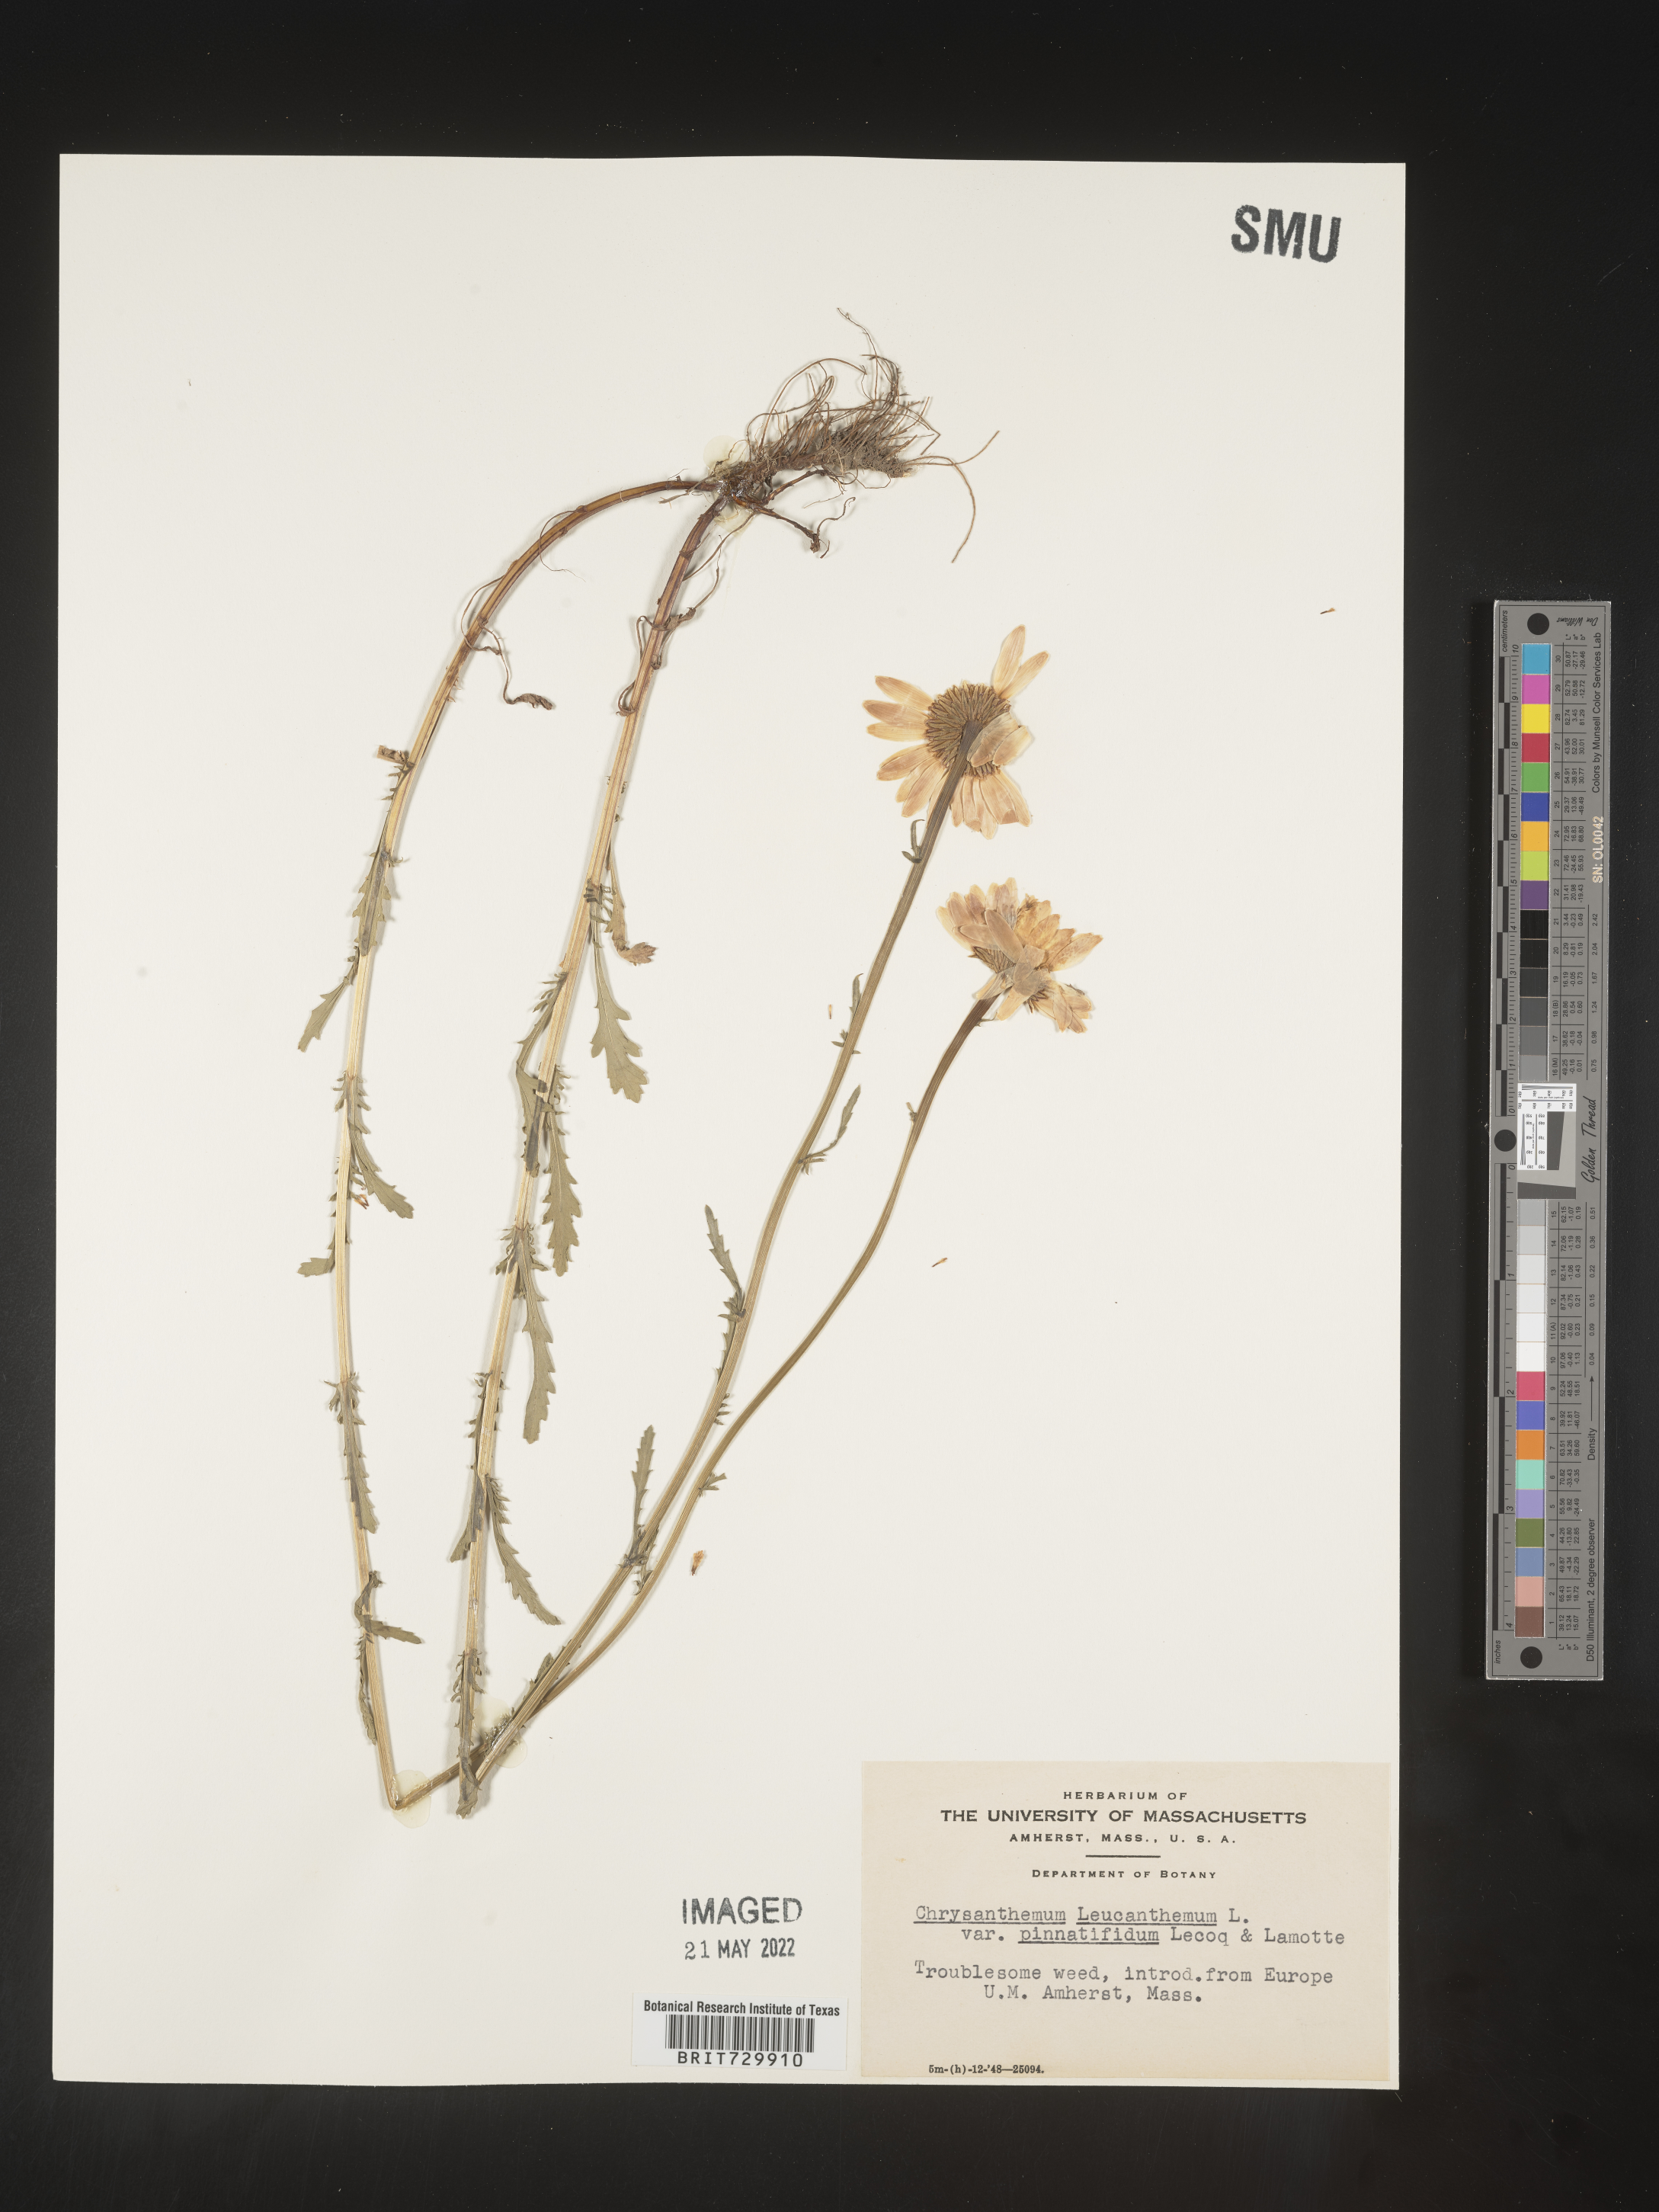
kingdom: Plantae
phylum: Tracheophyta
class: Magnoliopsida
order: Asterales
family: Asteraceae
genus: Leucanthemum
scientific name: Leucanthemum vulgare
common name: Oxeye daisy
